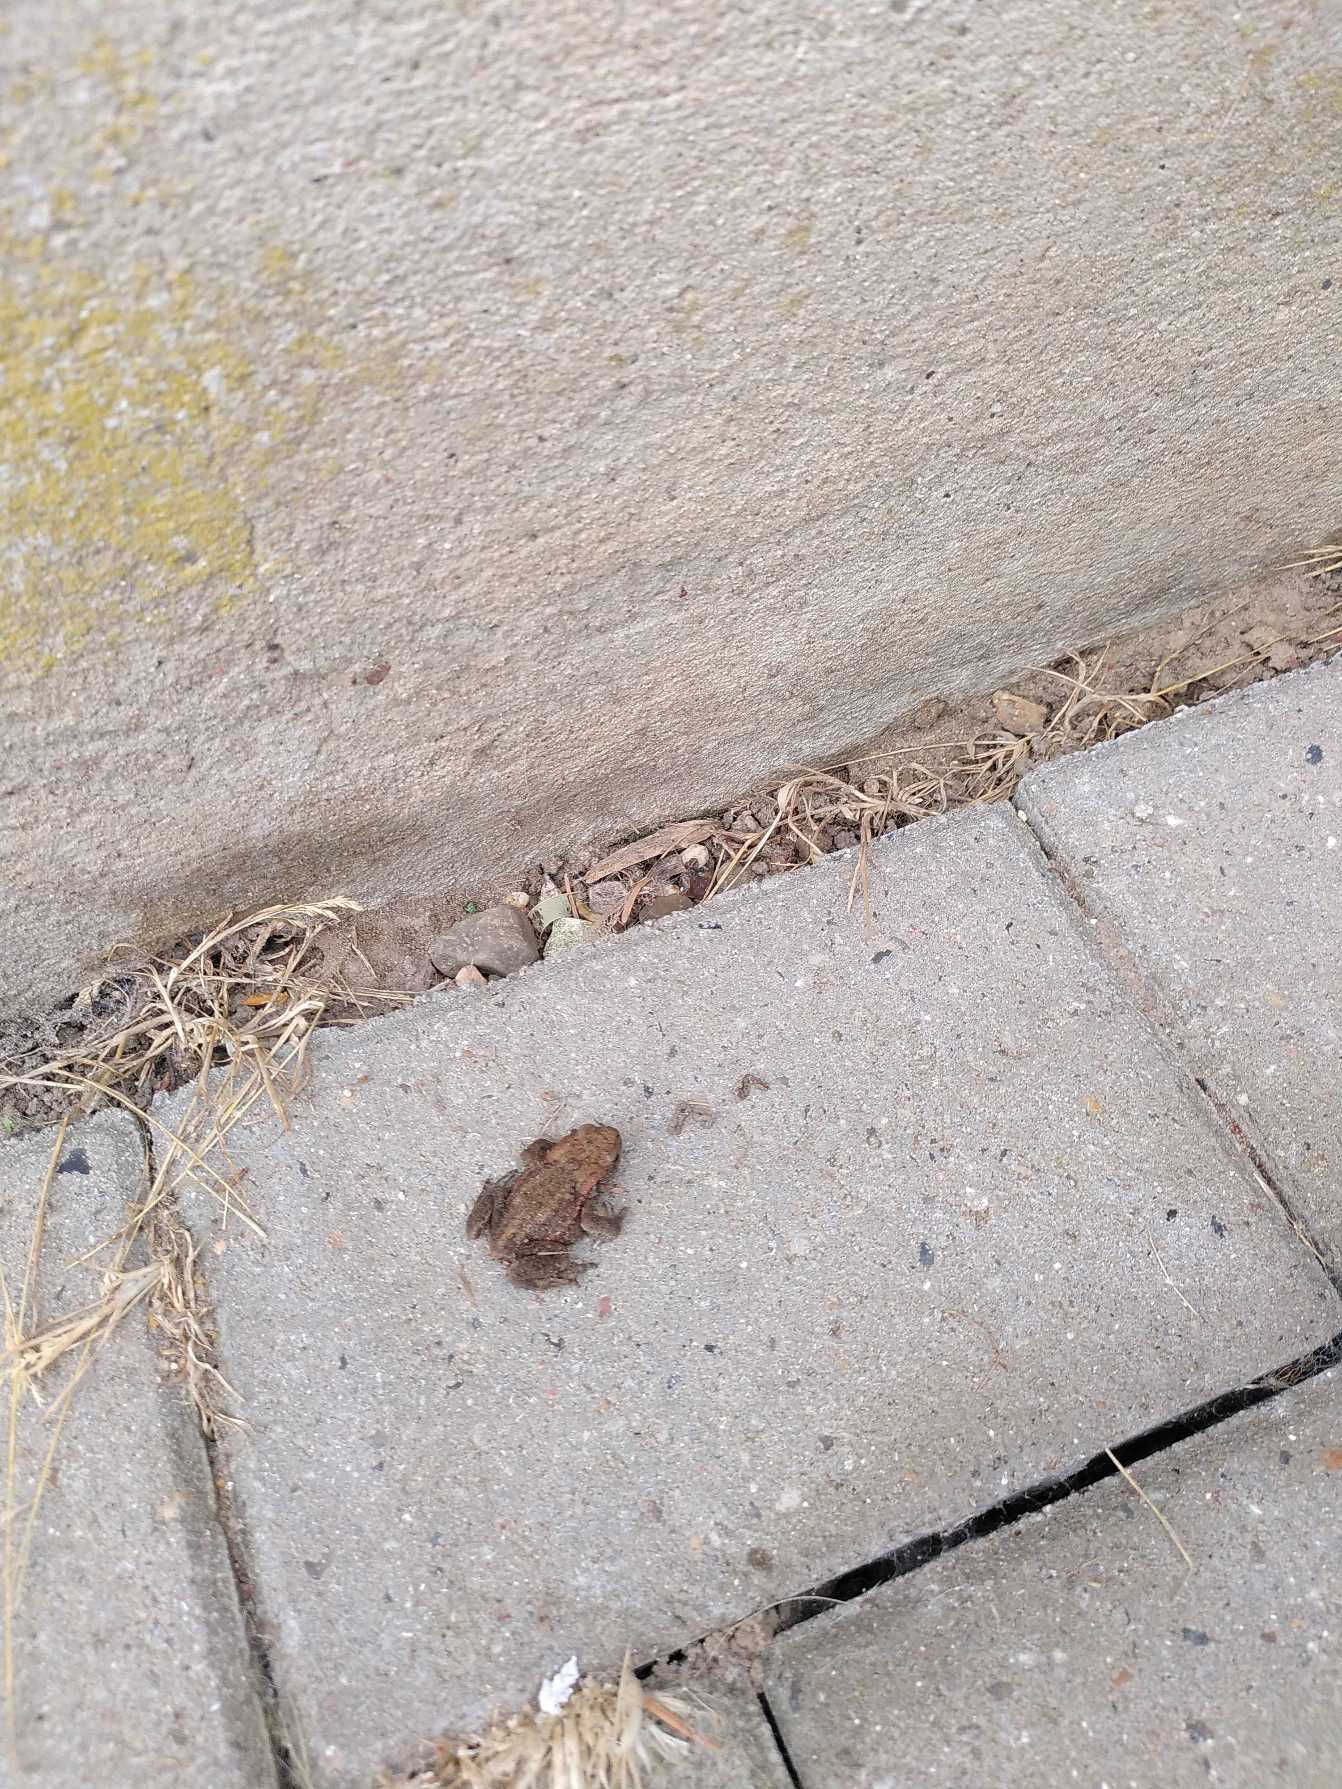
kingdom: Animalia
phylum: Chordata
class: Amphibia
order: Anura
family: Bufonidae
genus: Bufo
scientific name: Bufo bufo
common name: Skrubtudse
